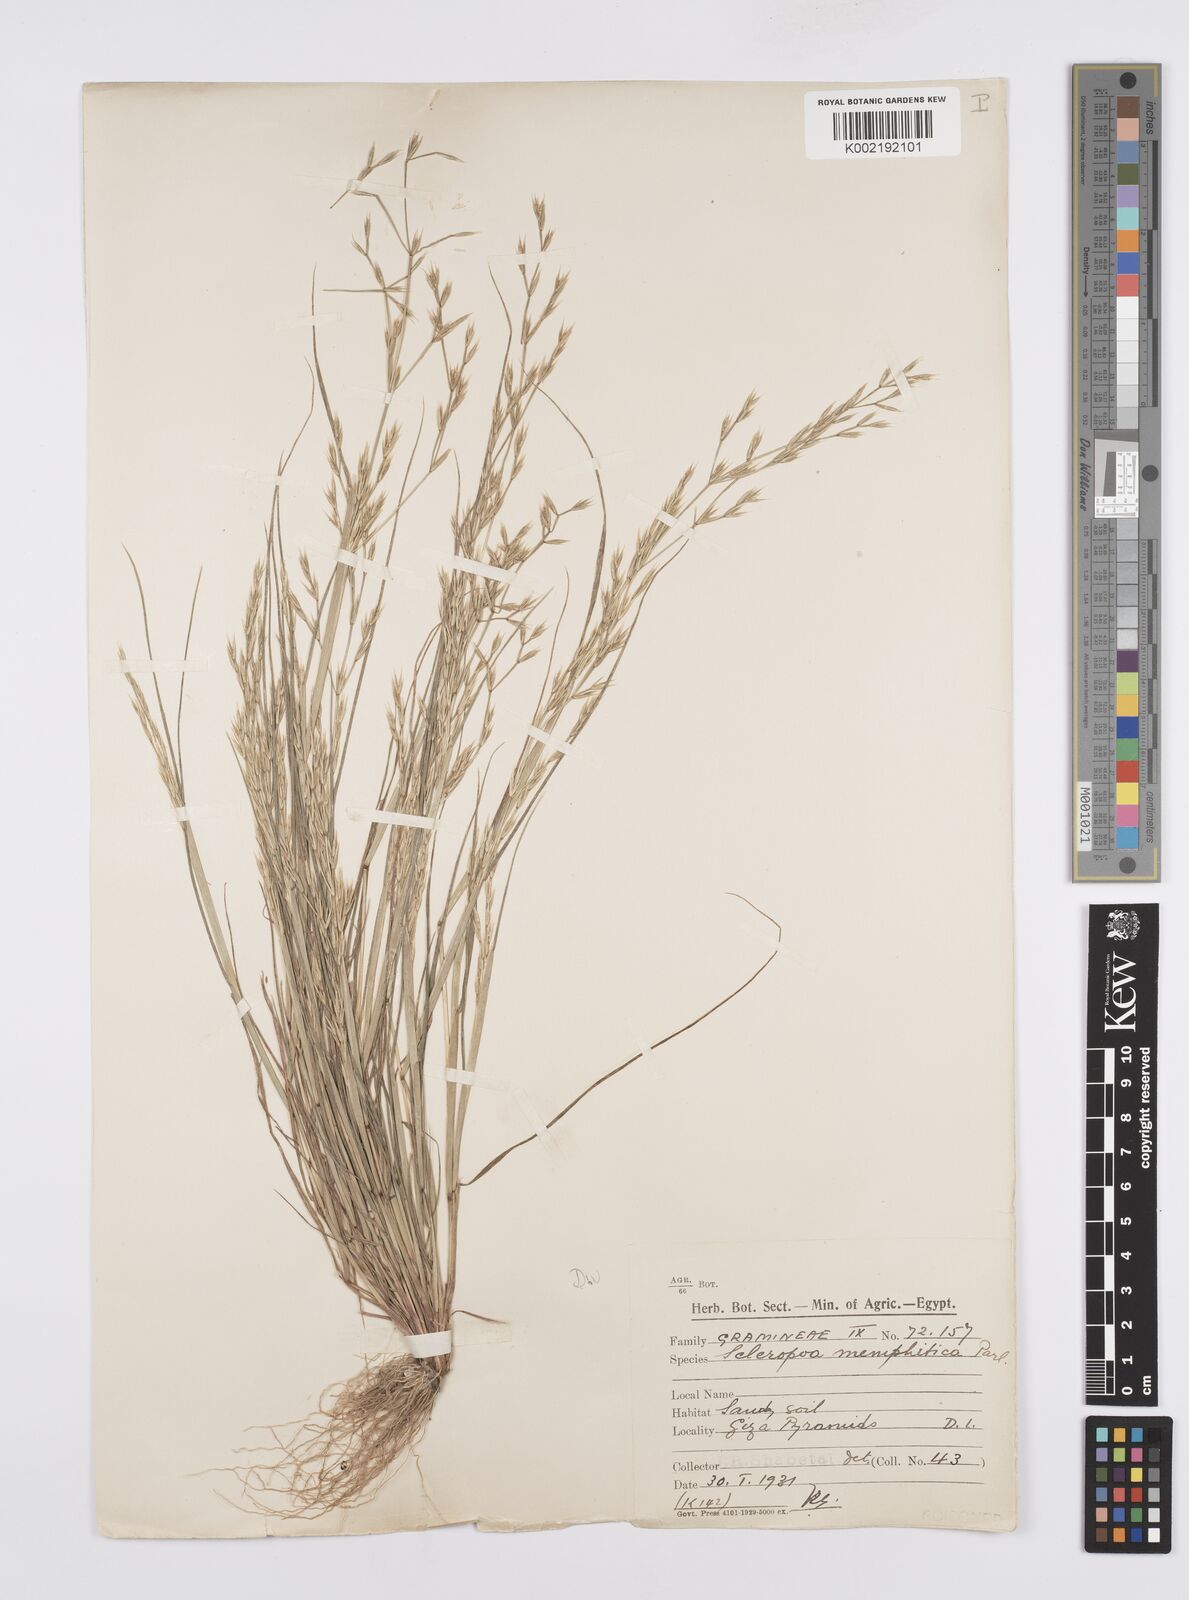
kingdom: Plantae
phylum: Tracheophyta
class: Liliopsida
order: Poales
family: Poaceae
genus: Cutandia
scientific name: Cutandia memphitica
